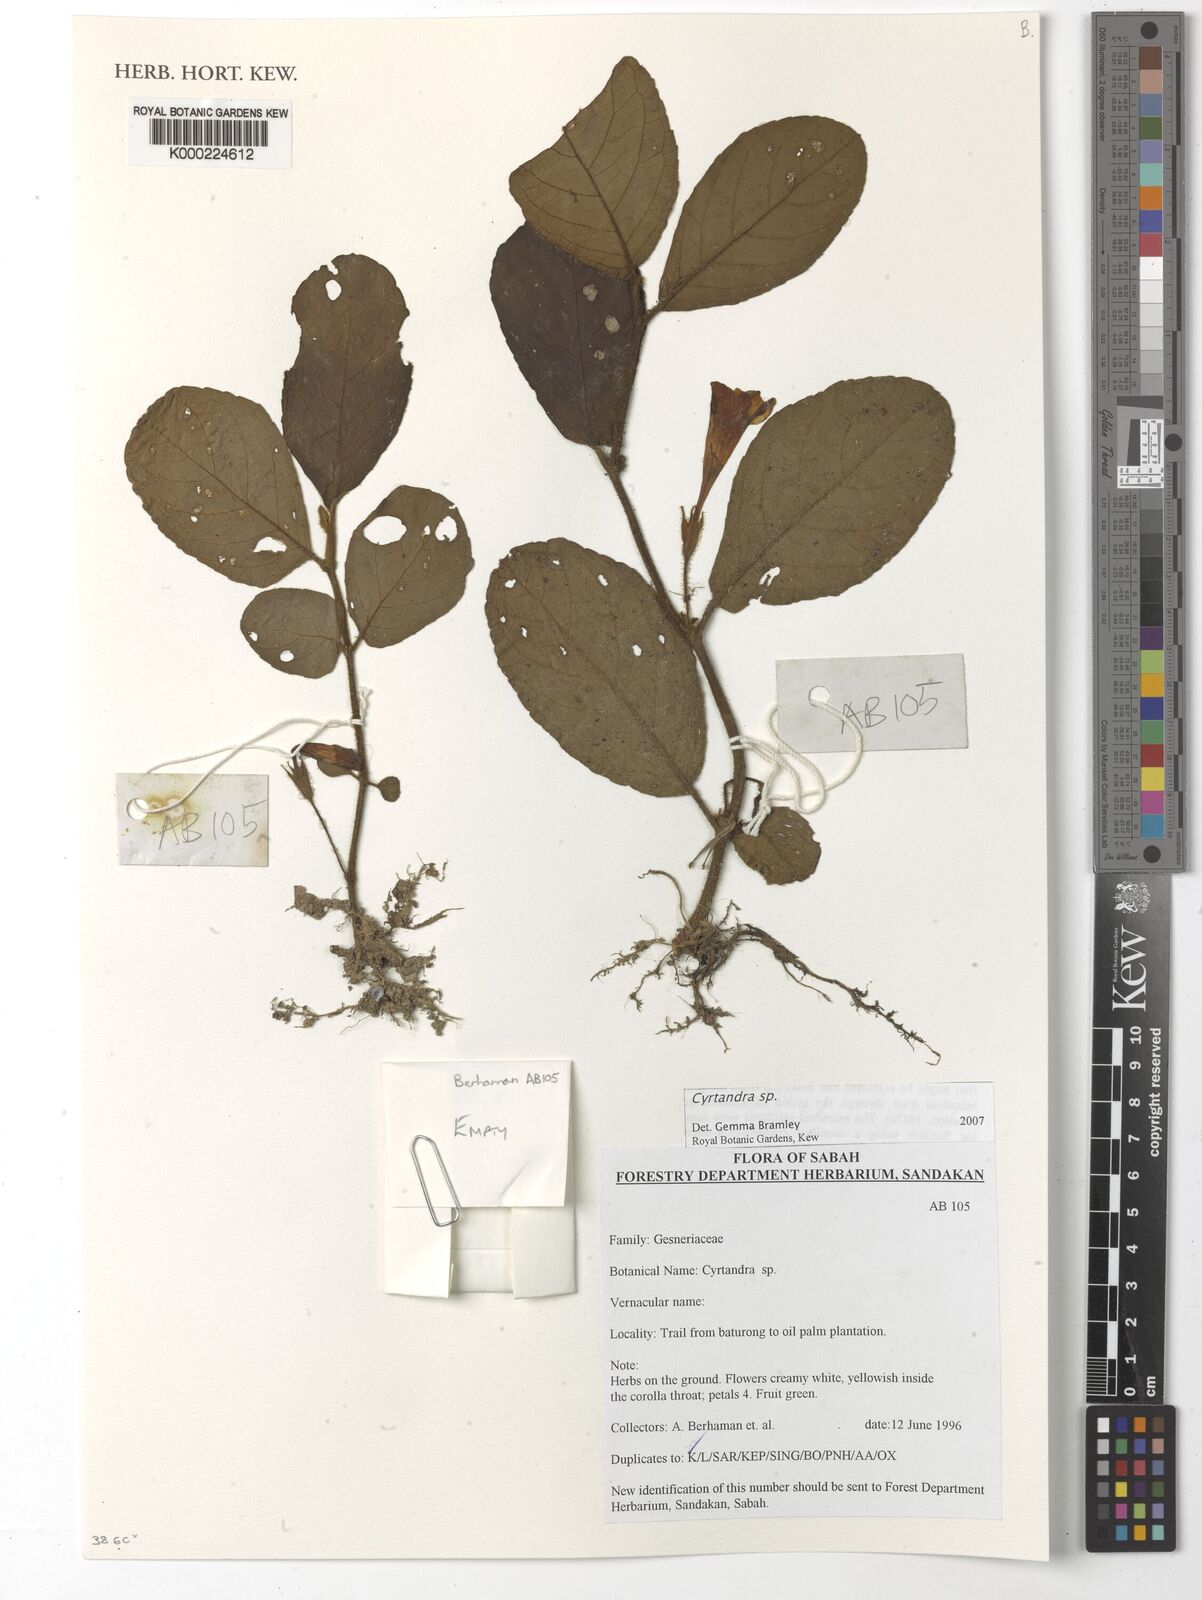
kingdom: Plantae
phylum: Tracheophyta
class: Magnoliopsida
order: Lamiales
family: Gesneriaceae
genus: Cyrtandra
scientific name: Cyrtandra
